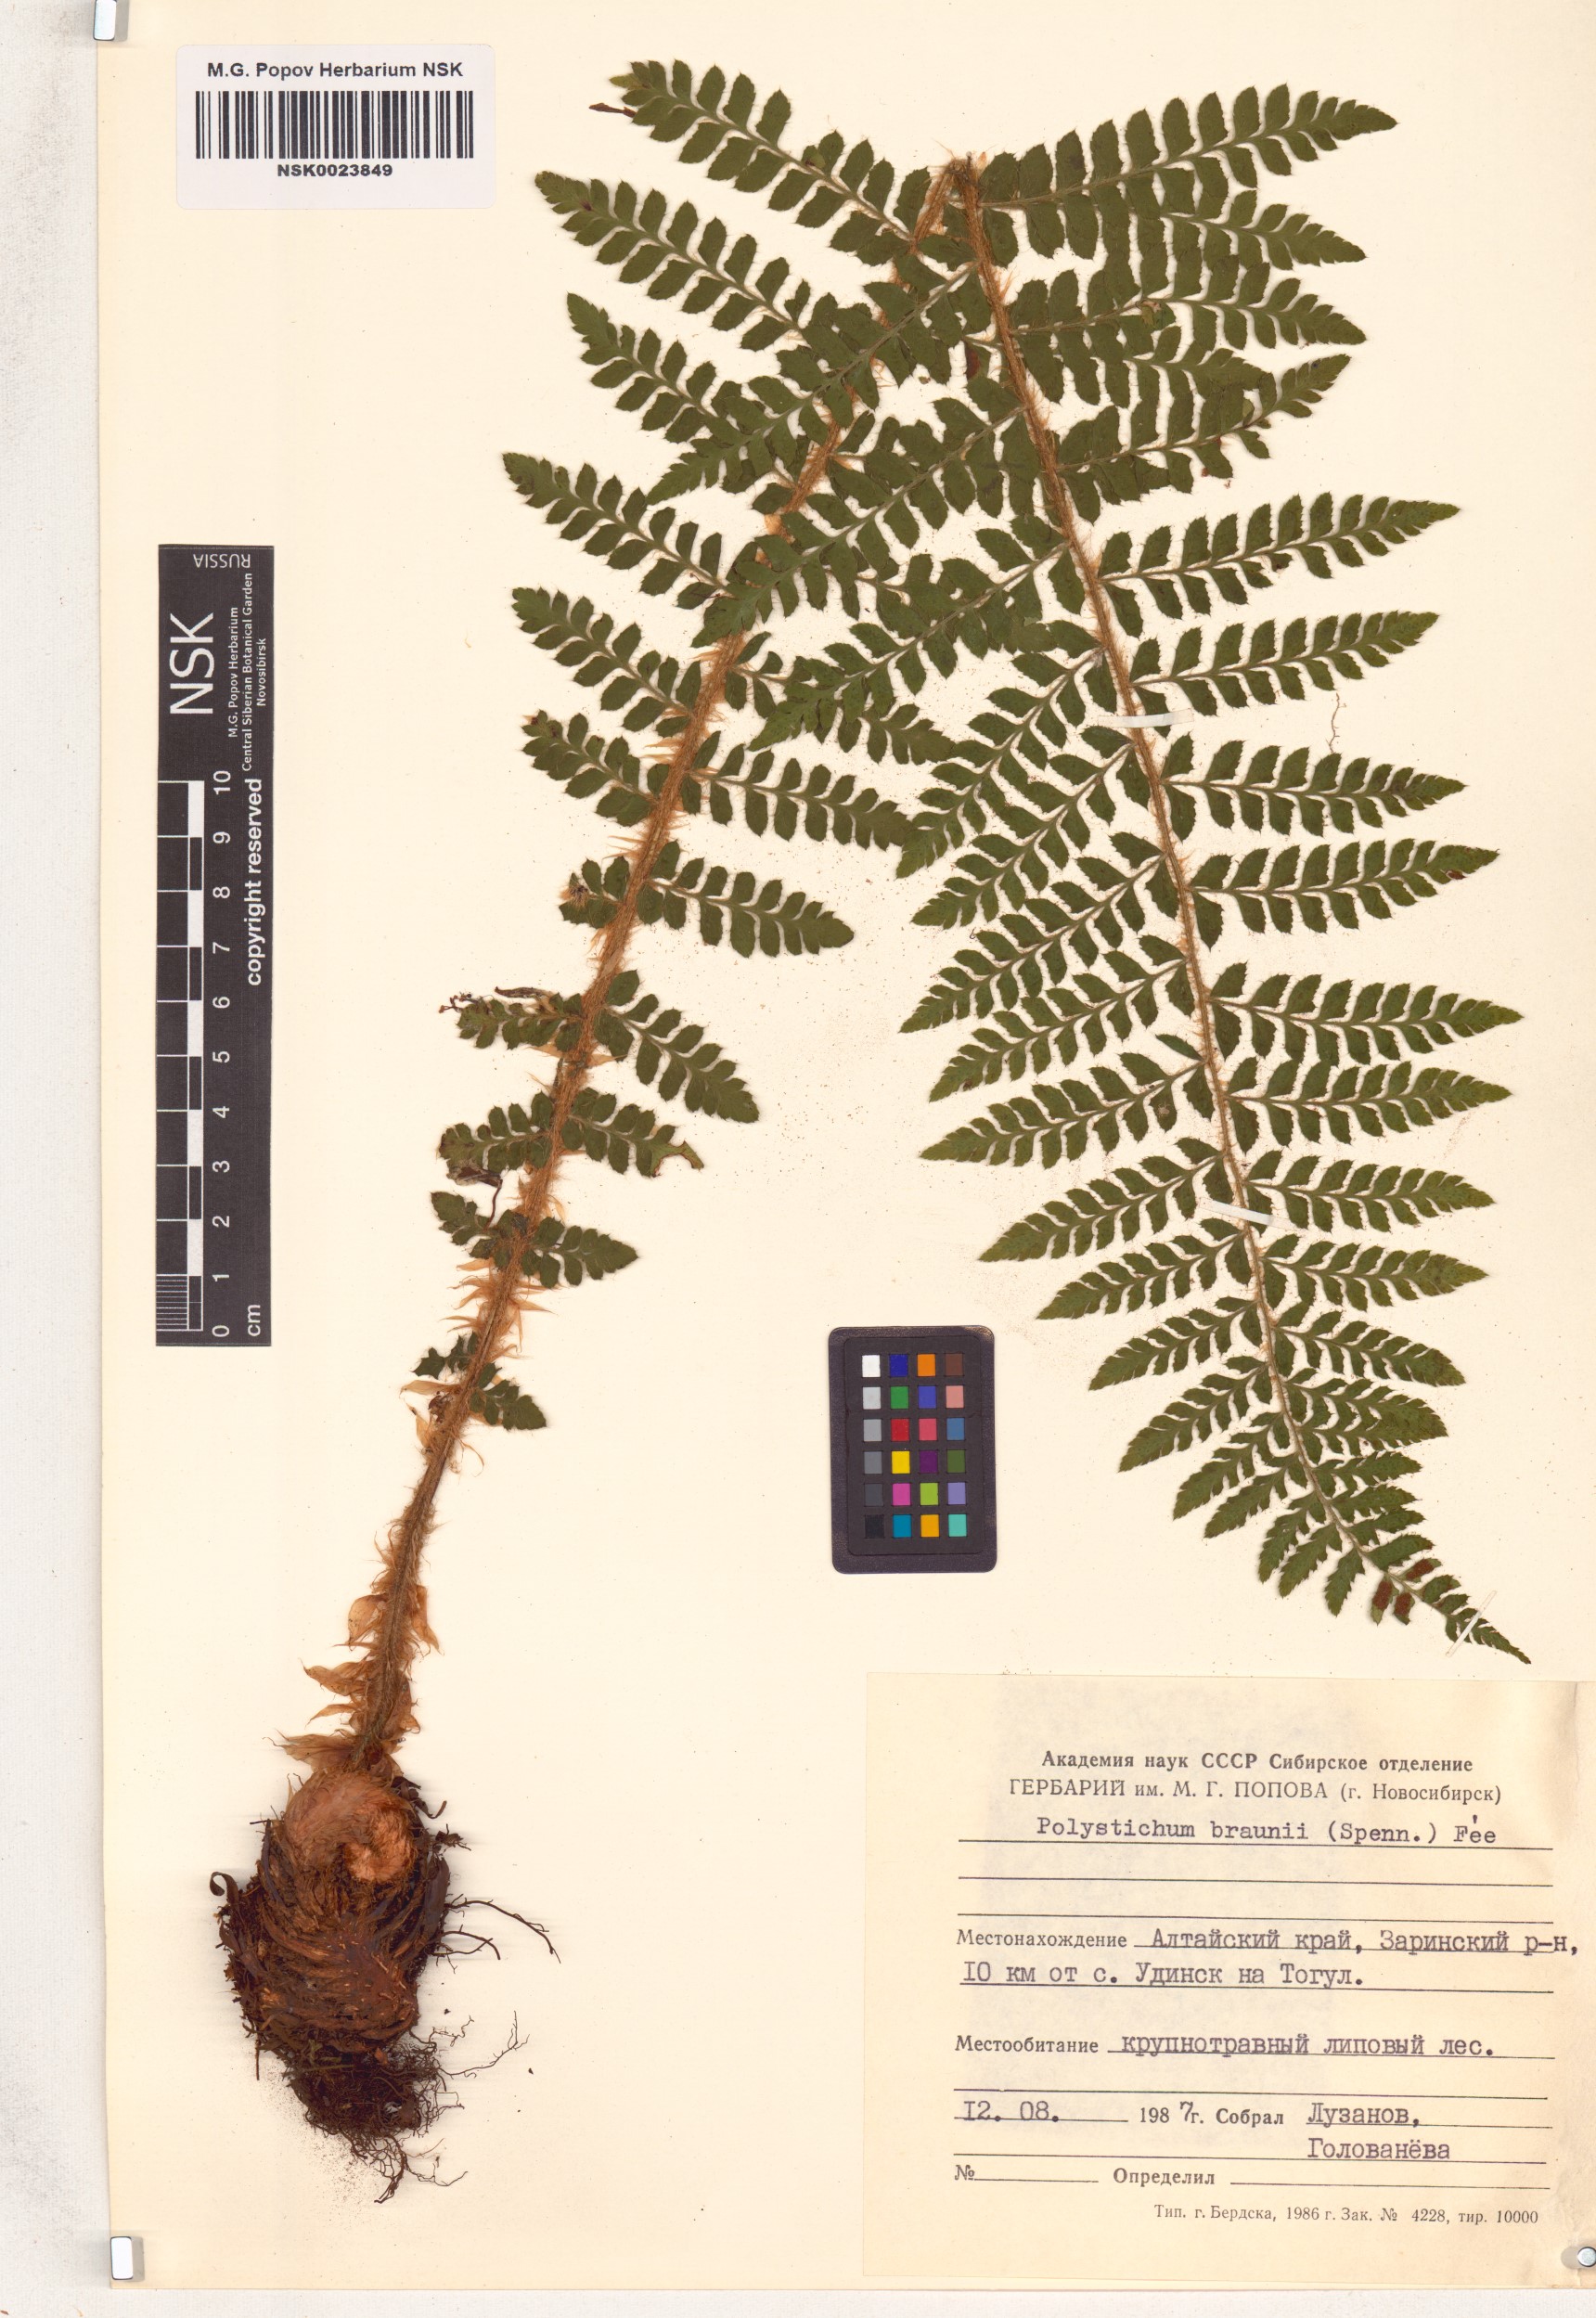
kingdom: Plantae
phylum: Tracheophyta
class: Polypodiopsida
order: Polypodiales
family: Dryopteridaceae
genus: Polystichum
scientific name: Polystichum braunii
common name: Braun's holly fern
